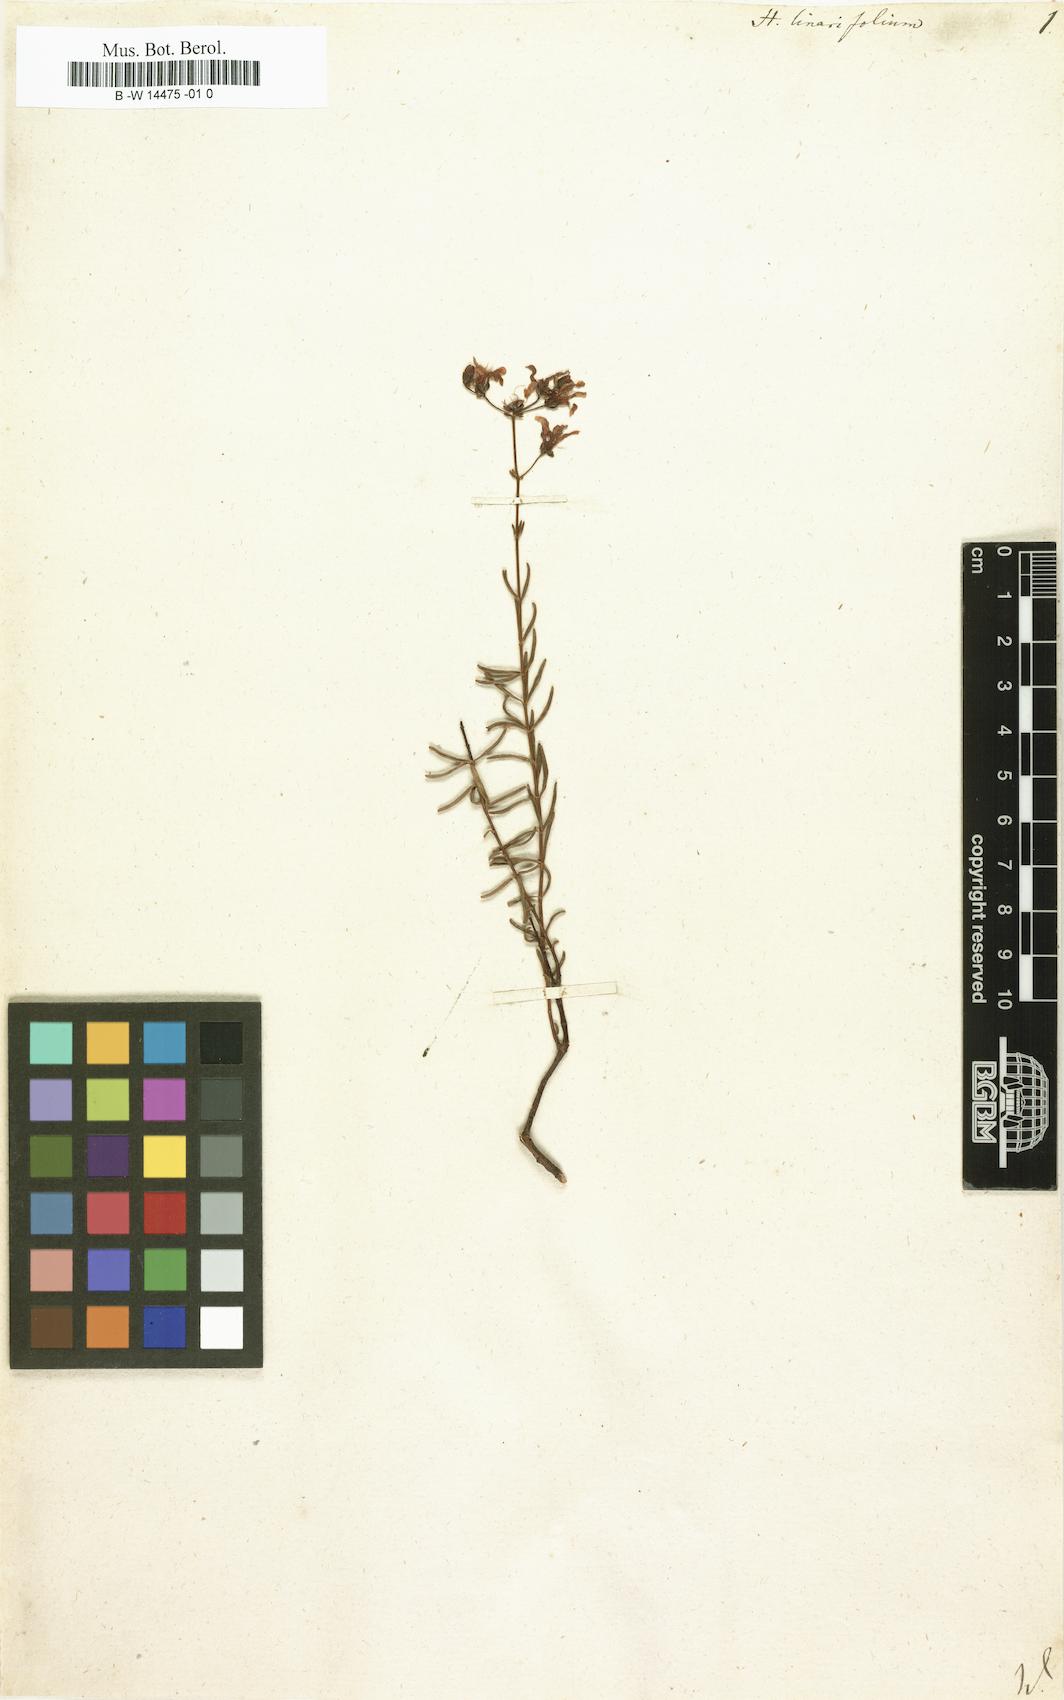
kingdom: Plantae
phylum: Tracheophyta
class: Magnoliopsida
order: Malpighiales
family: Hypericaceae
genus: Hypericum
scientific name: Hypericum linariifolium
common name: Toadflax-leaved st. john's-wort
